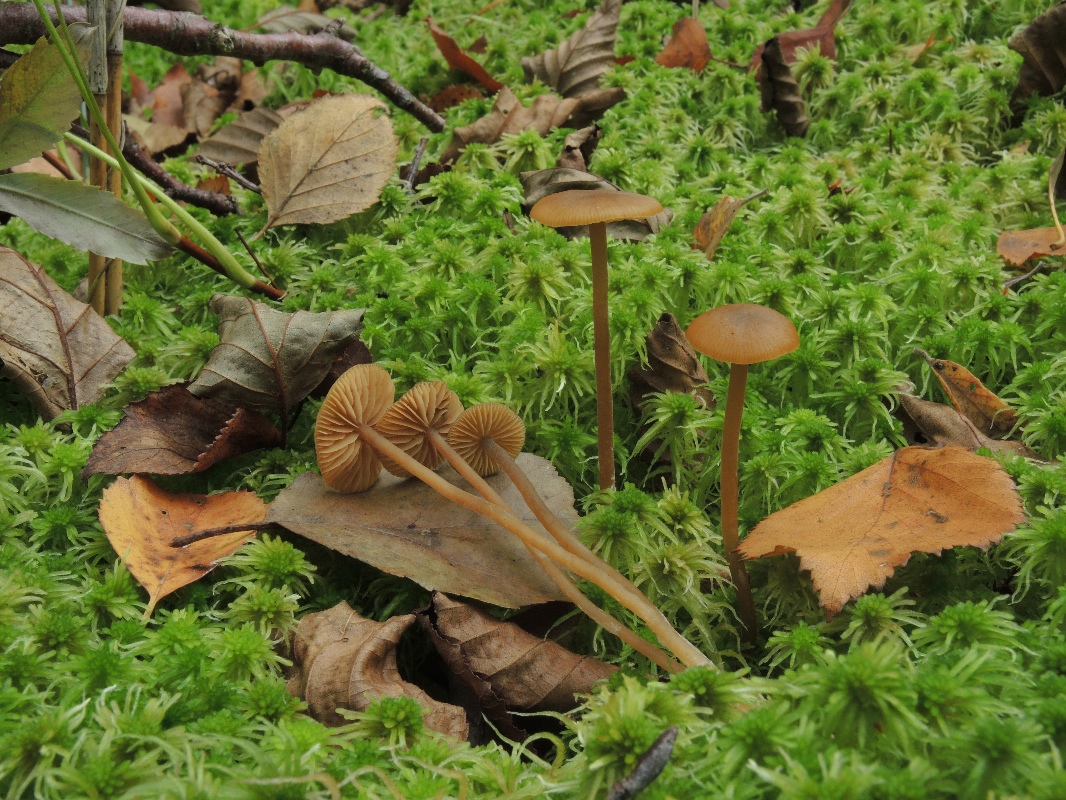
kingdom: Fungi
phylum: Basidiomycota
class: Agaricomycetes
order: Agaricales
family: Hymenogastraceae
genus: Galerina
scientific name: Galerina mairei
